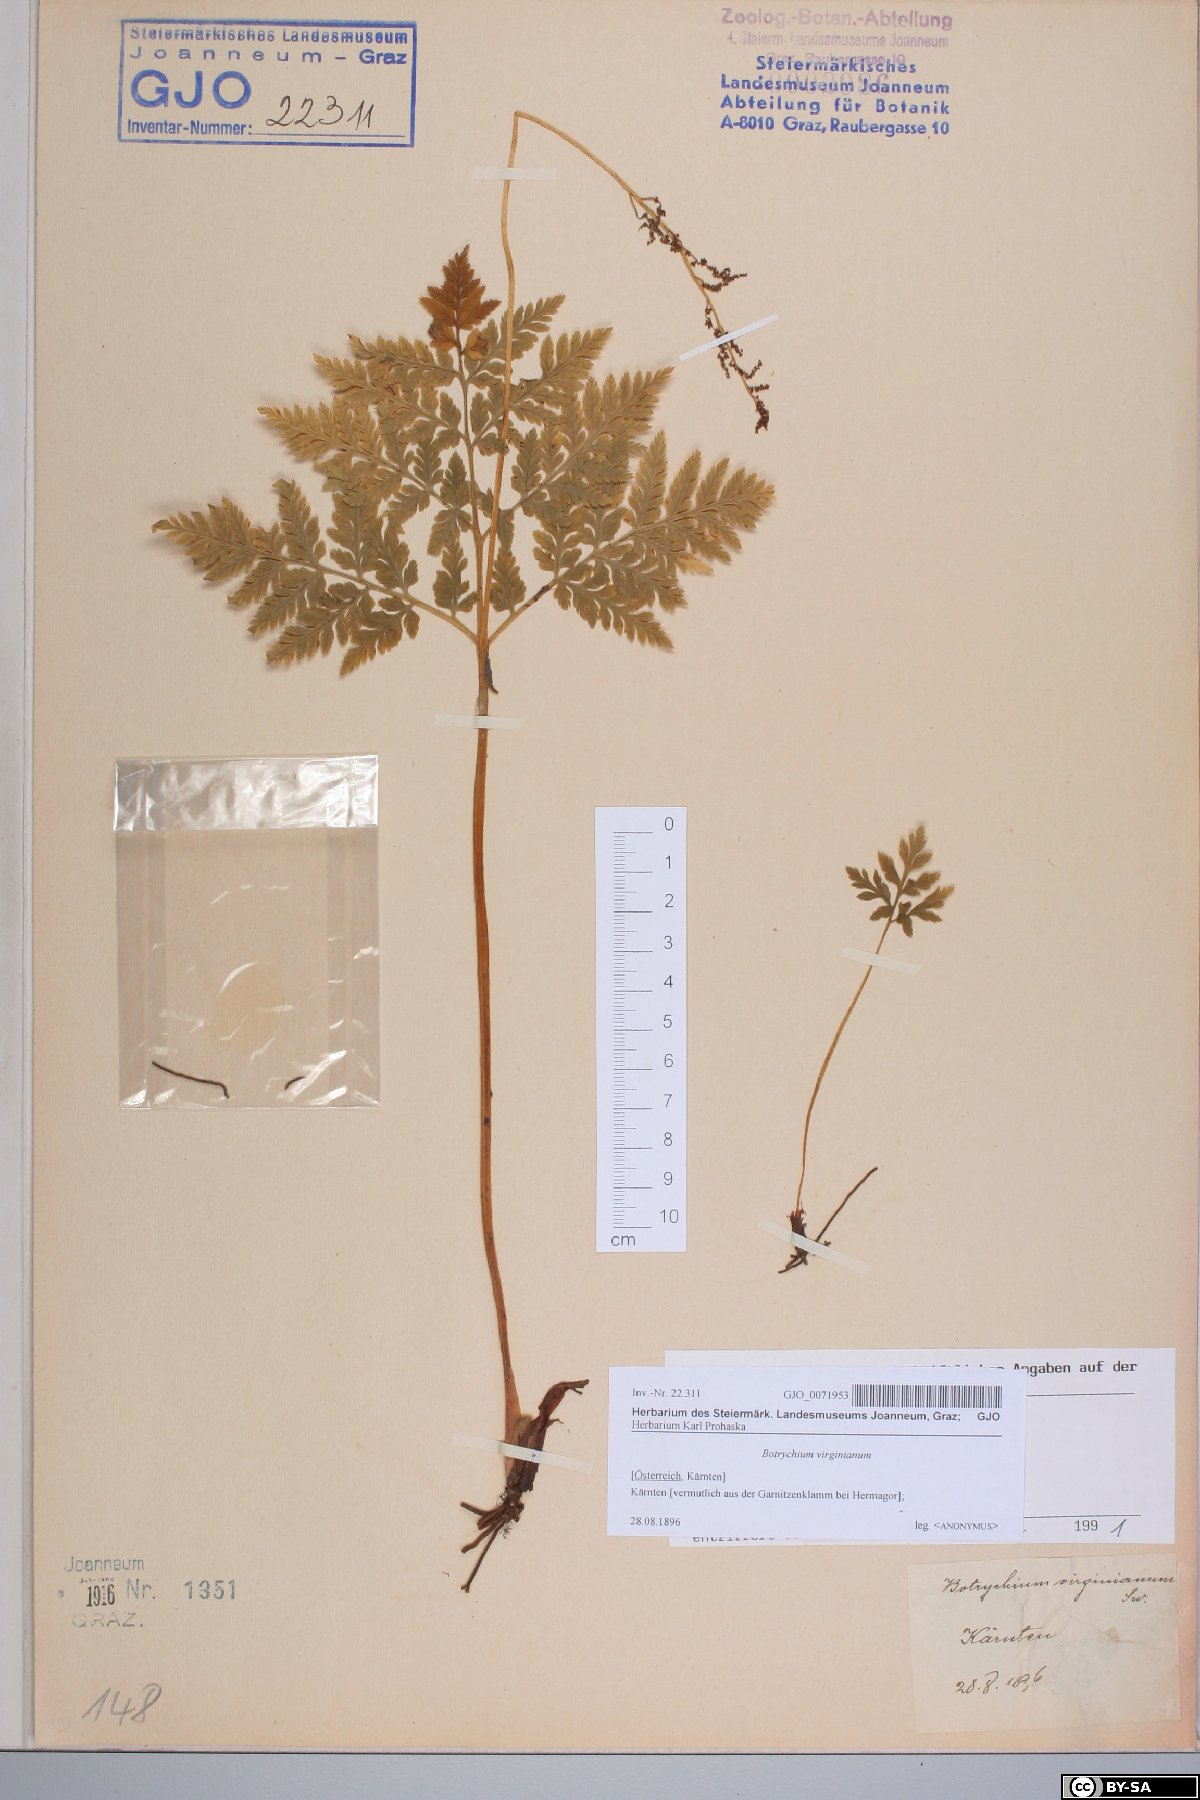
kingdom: Plantae
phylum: Tracheophyta
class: Polypodiopsida
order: Ophioglossales
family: Ophioglossaceae
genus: Botrypus
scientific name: Botrypus virginianus
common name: Common grapefern
